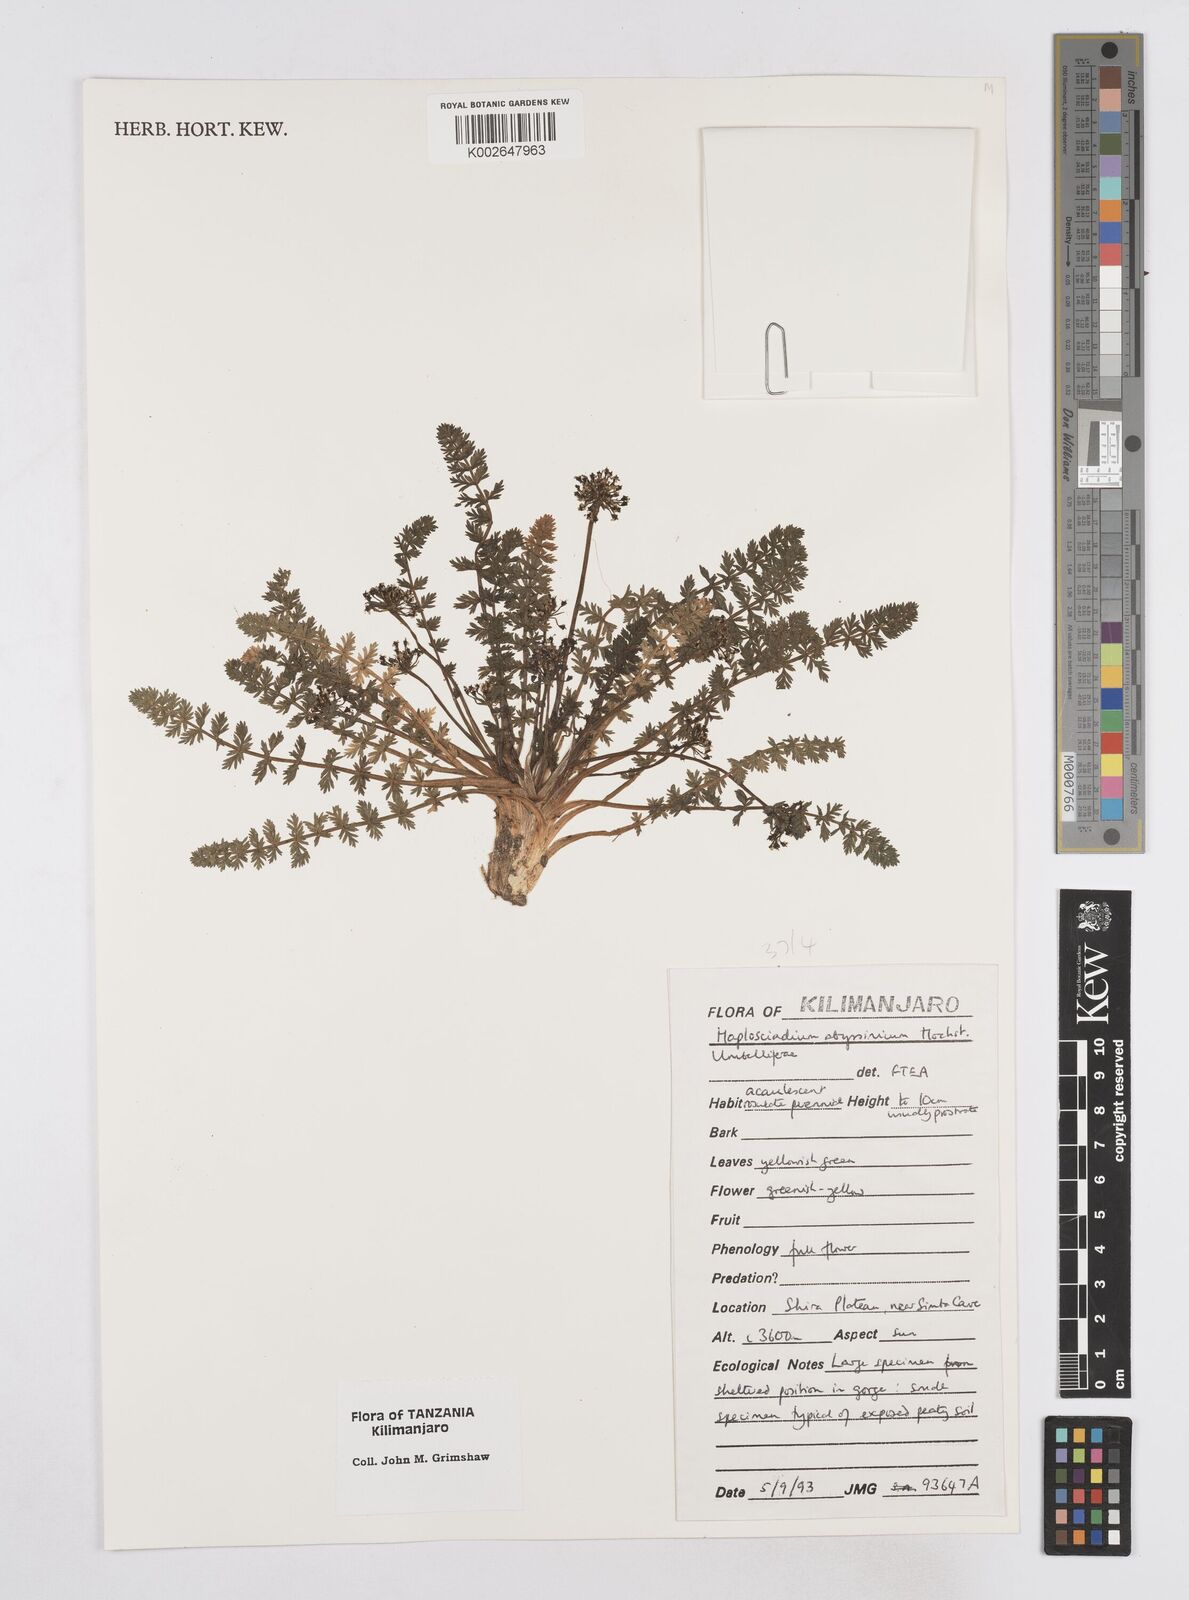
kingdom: Plantae
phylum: Tracheophyta
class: Magnoliopsida
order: Apiales
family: Apiaceae
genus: Haplosciadium
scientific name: Haplosciadium abyssinicum
